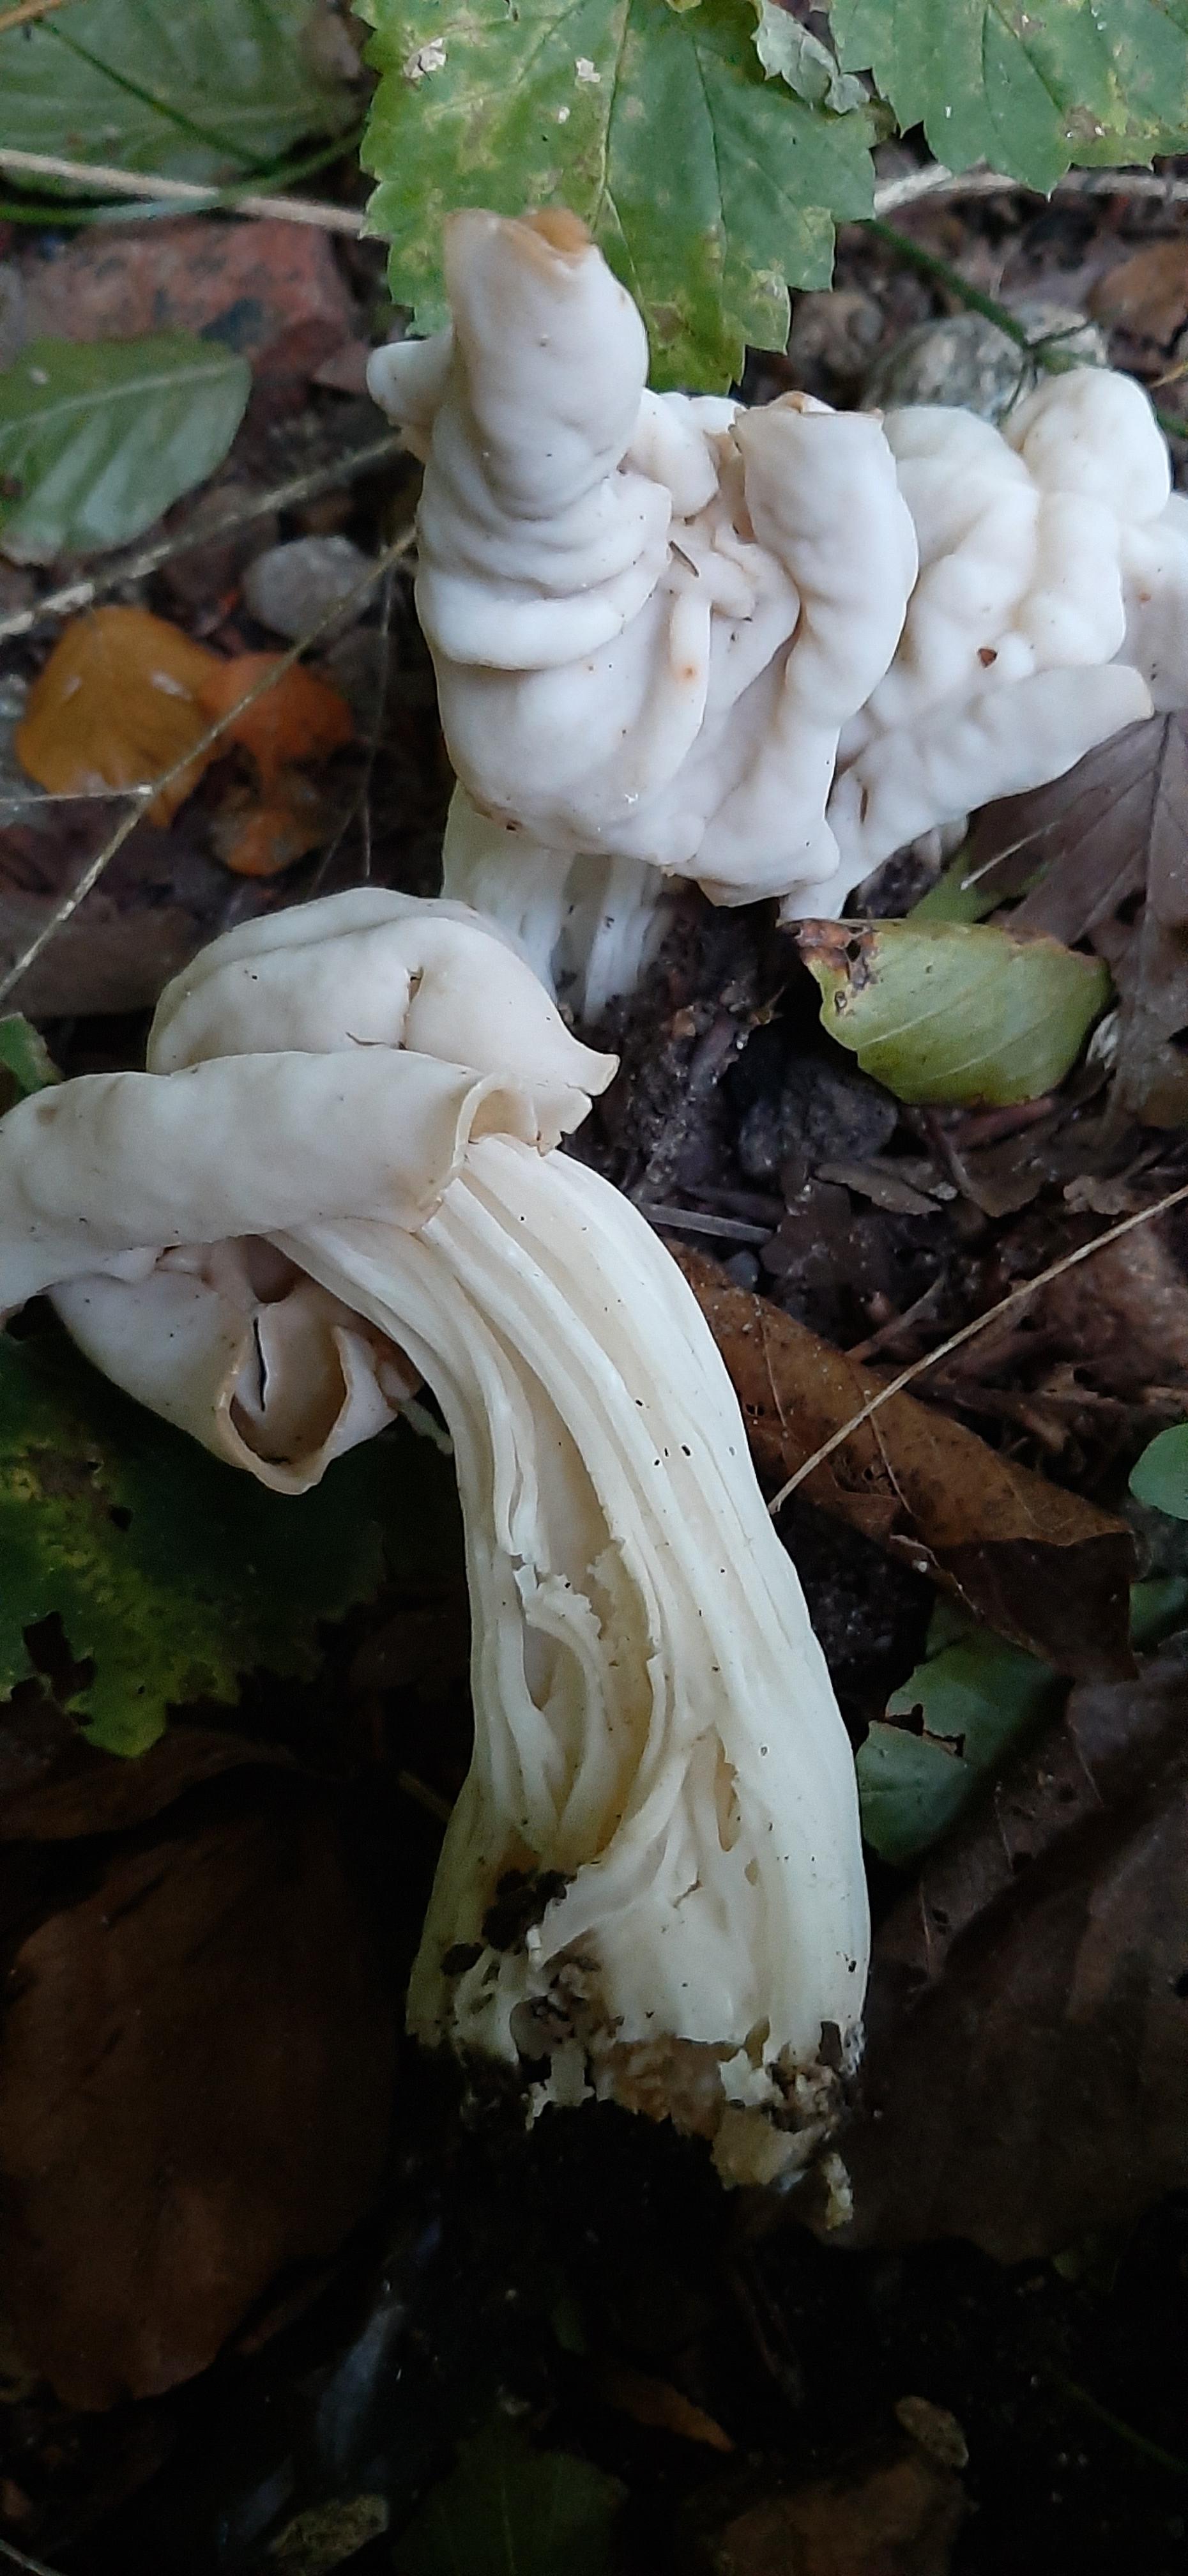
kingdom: Fungi
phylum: Ascomycota
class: Pezizomycetes
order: Pezizales
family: Helvellaceae
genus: Helvella
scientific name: Helvella crispa
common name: kruset foldhat
